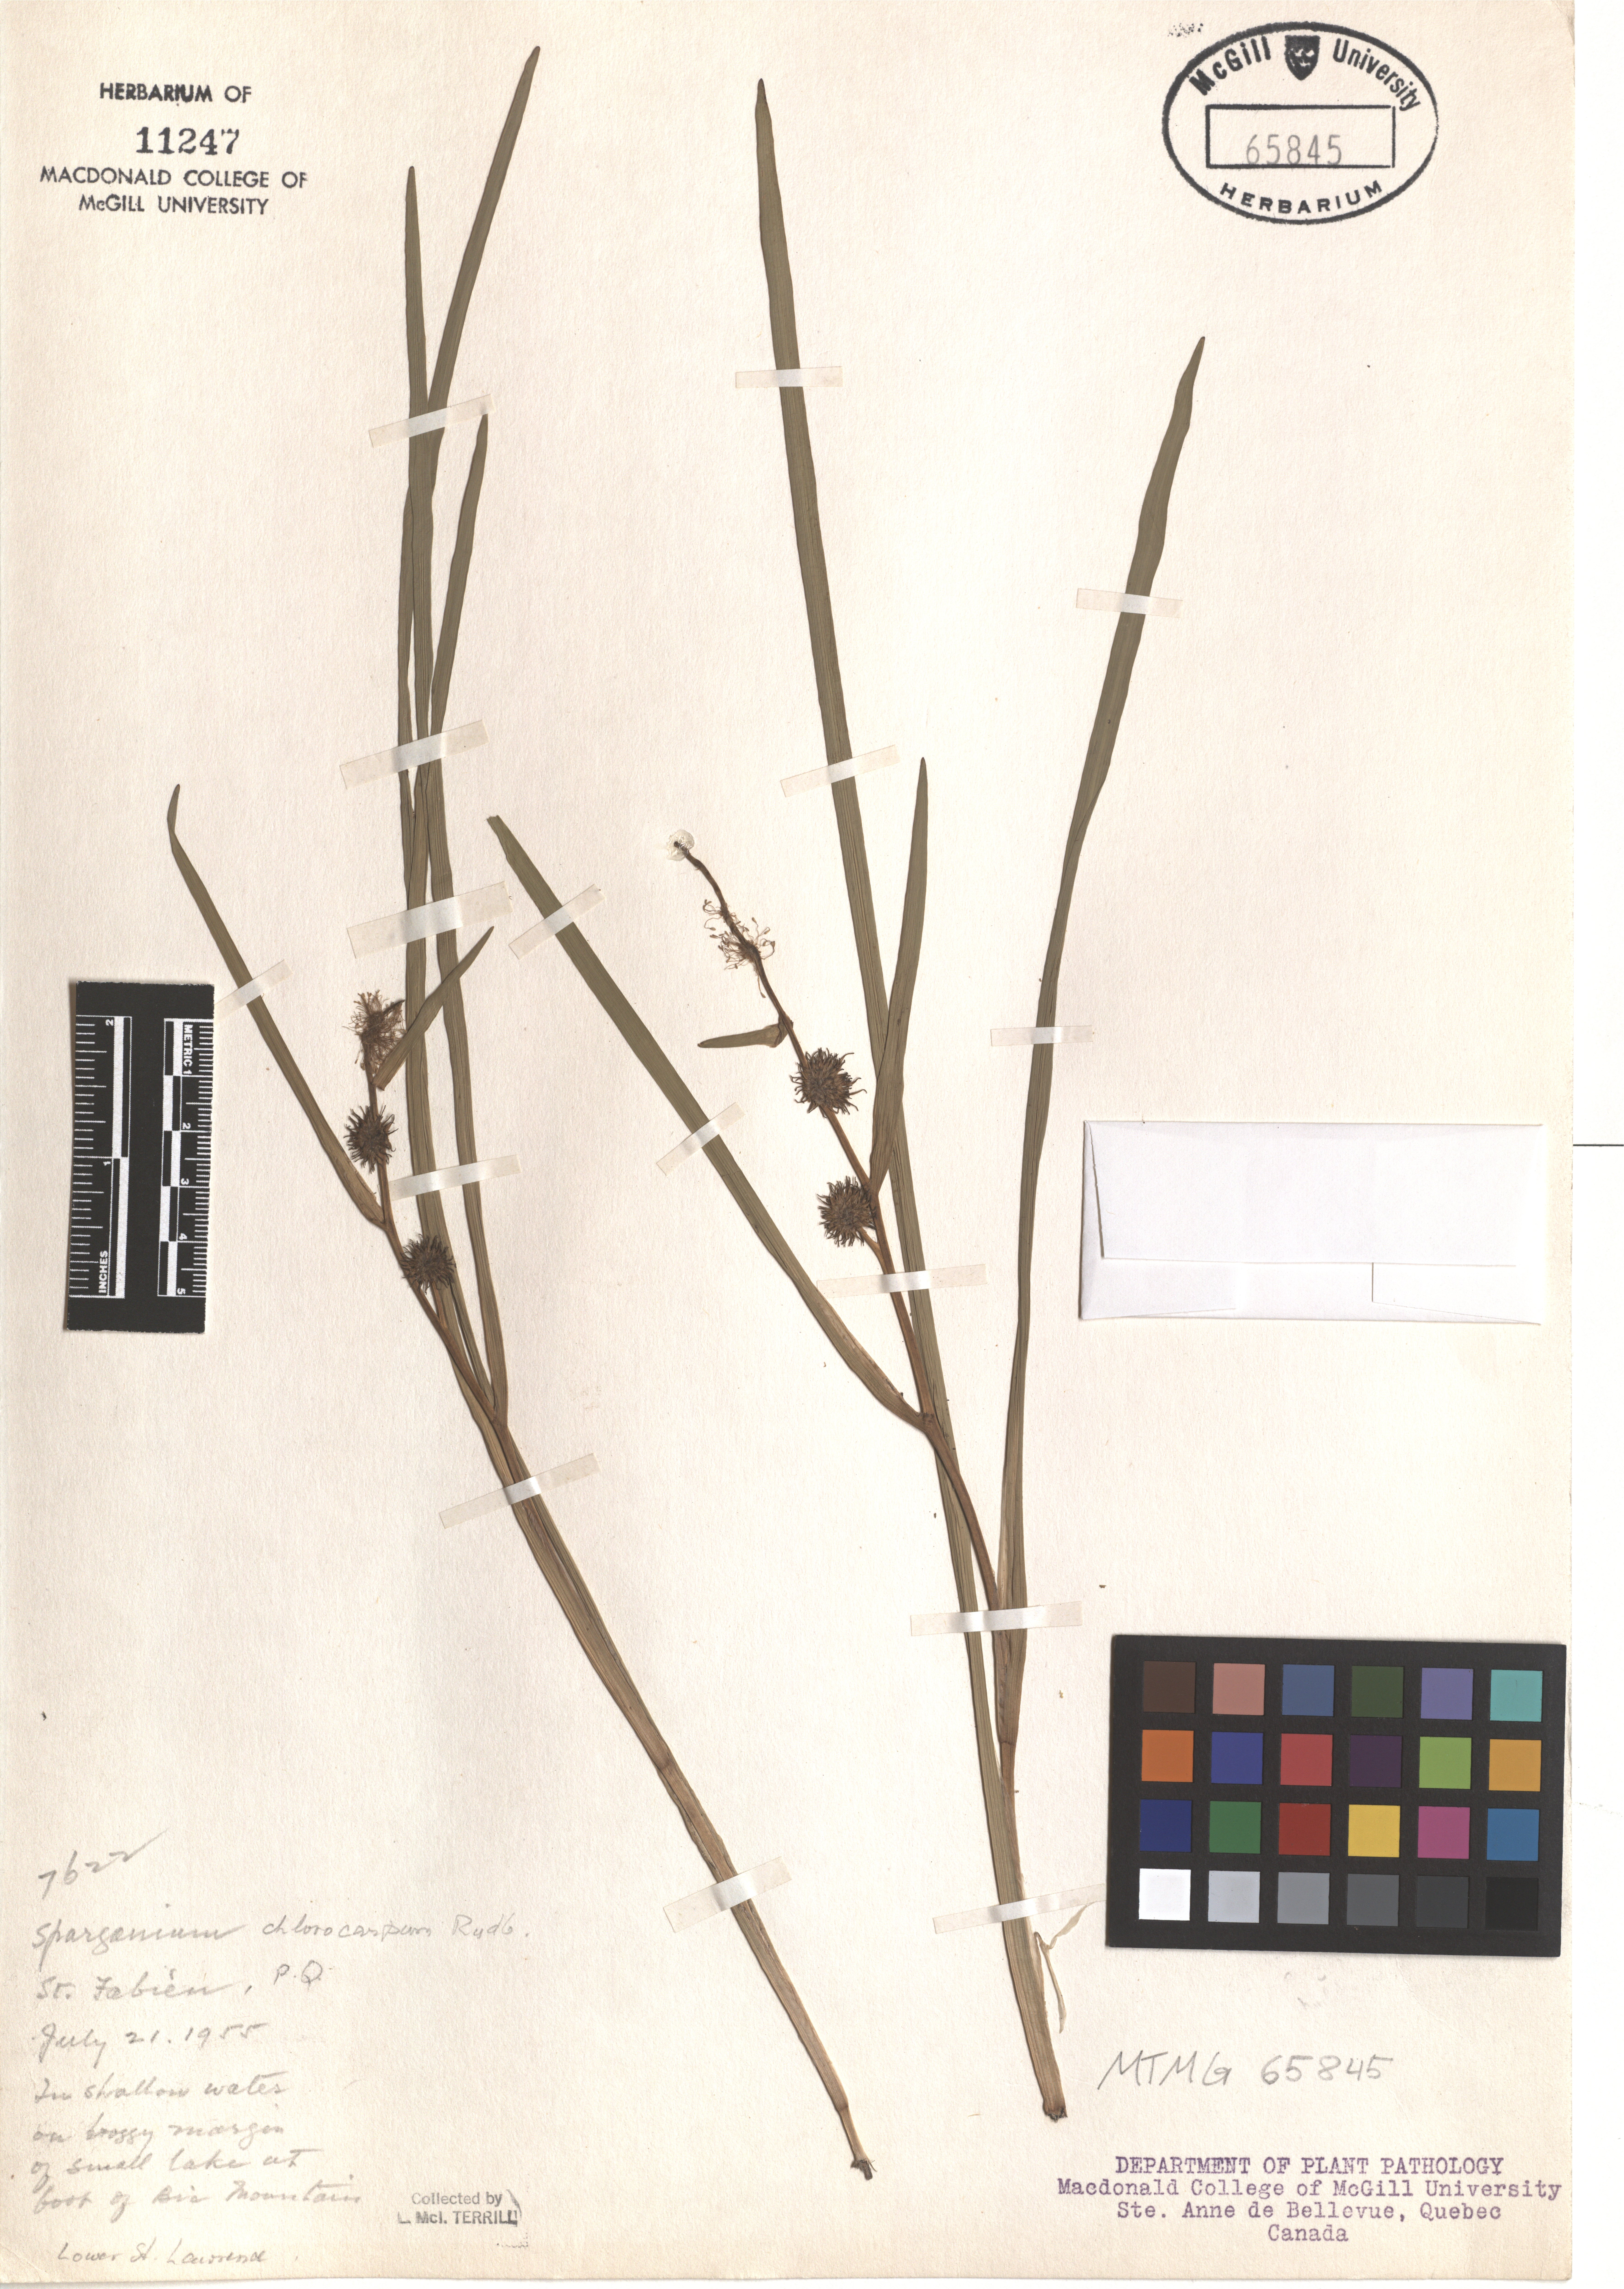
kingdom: Plantae
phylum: Tracheophyta
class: Liliopsida
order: Poales
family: Typhaceae
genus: Sparganium
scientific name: Sparganium emersum
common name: Unbranched bur-reed
